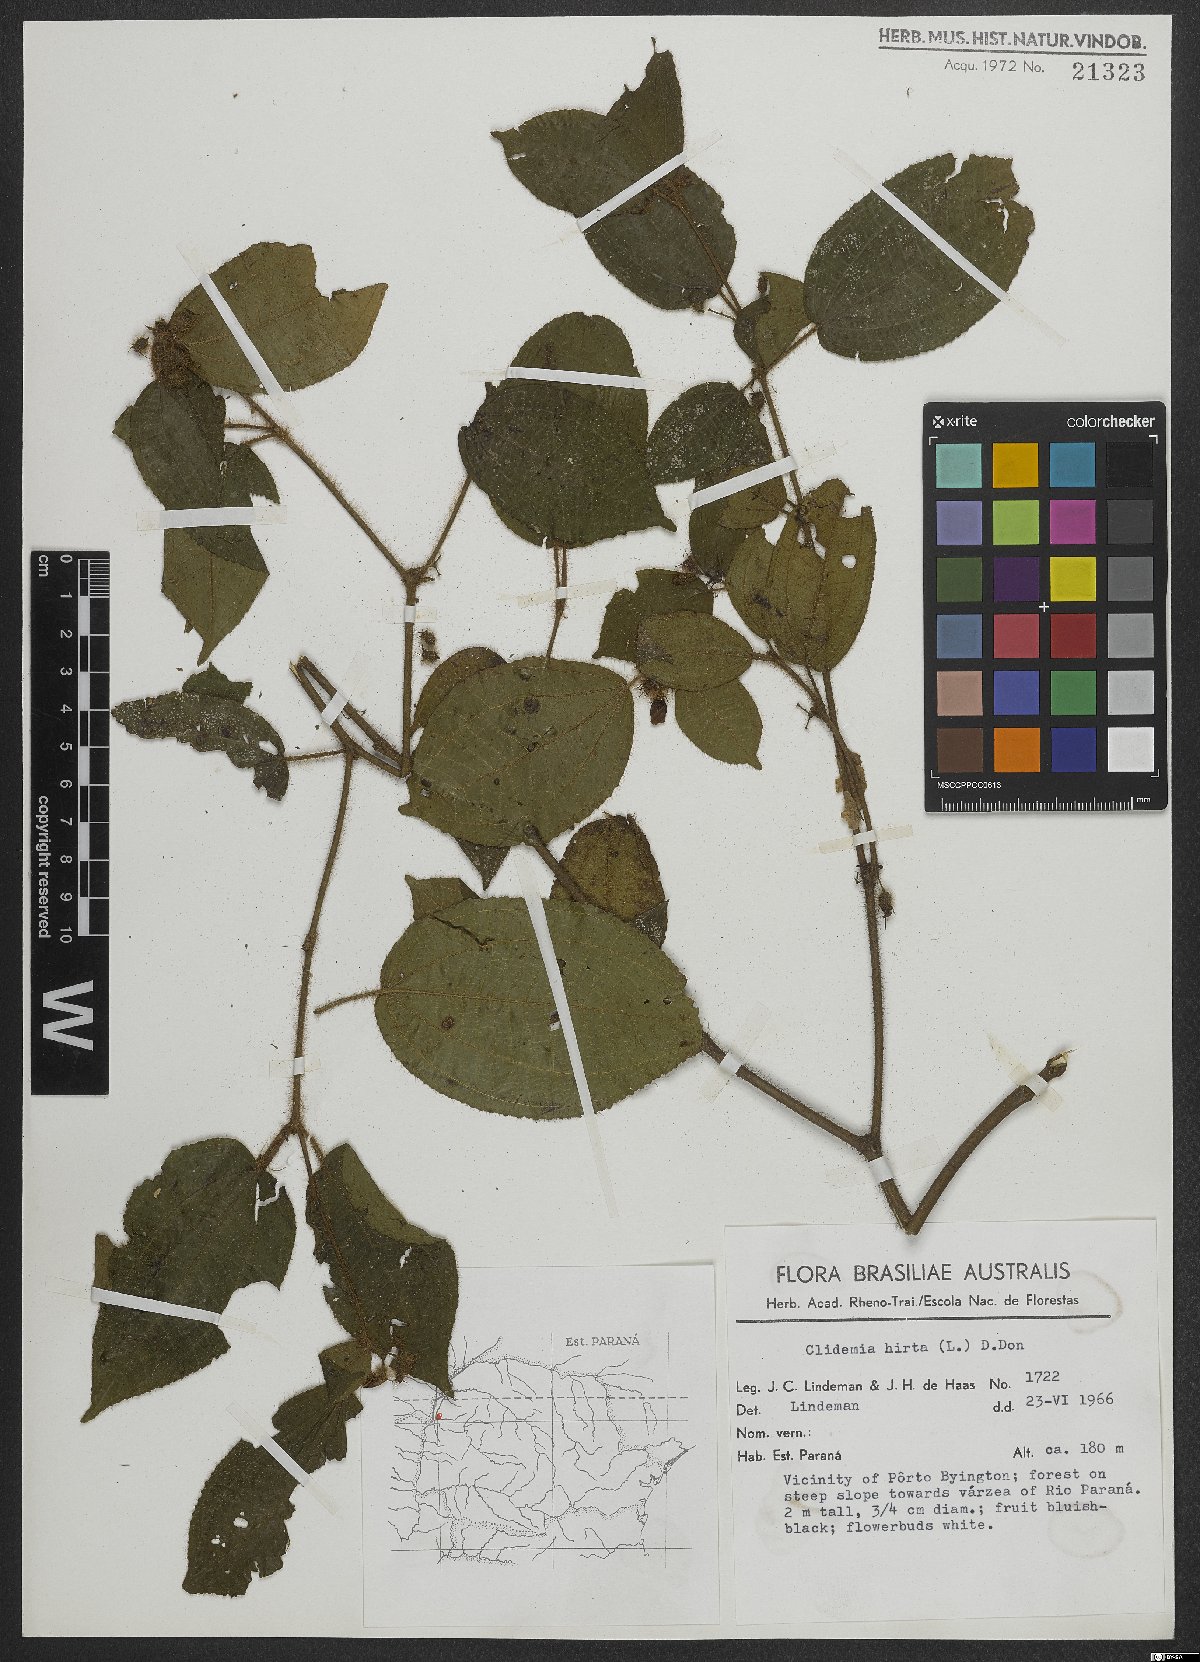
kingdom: Plantae
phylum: Tracheophyta
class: Magnoliopsida
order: Myrtales
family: Melastomataceae
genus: Miconia
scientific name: Miconia crenata
